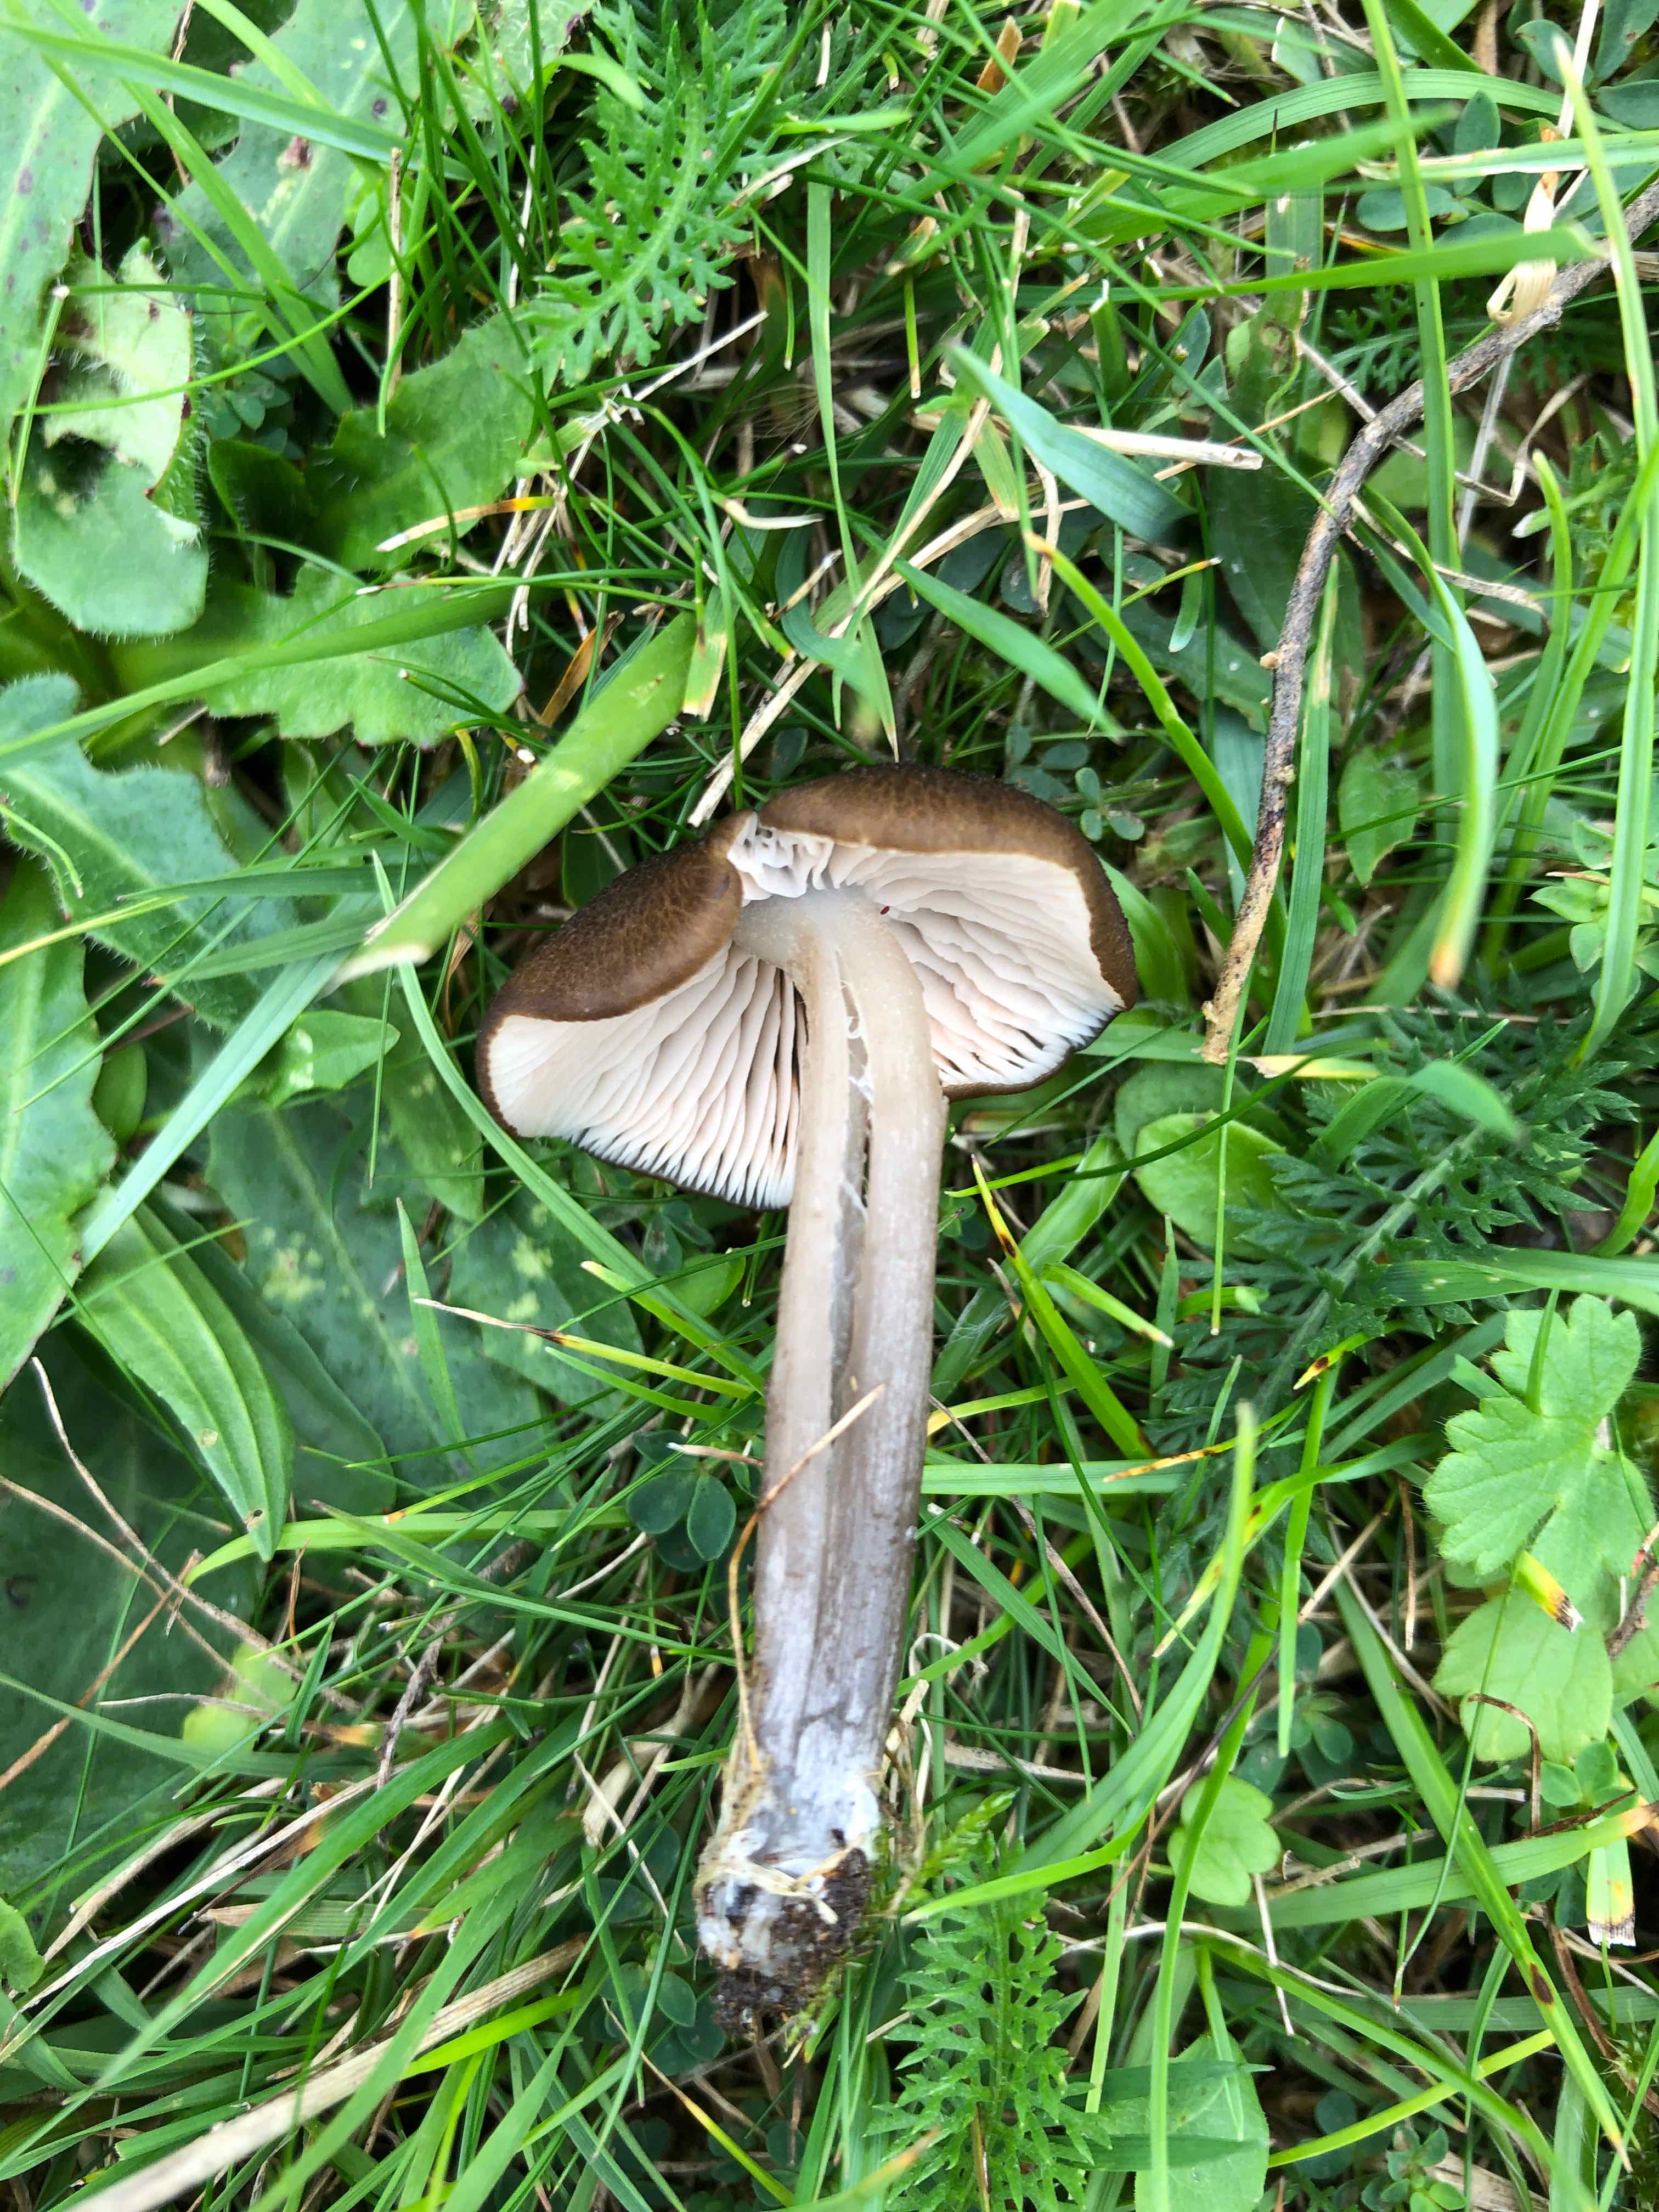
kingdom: Fungi
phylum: Basidiomycota
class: Agaricomycetes
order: Agaricales
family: Entolomataceae
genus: Entoloma
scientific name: Entoloma
